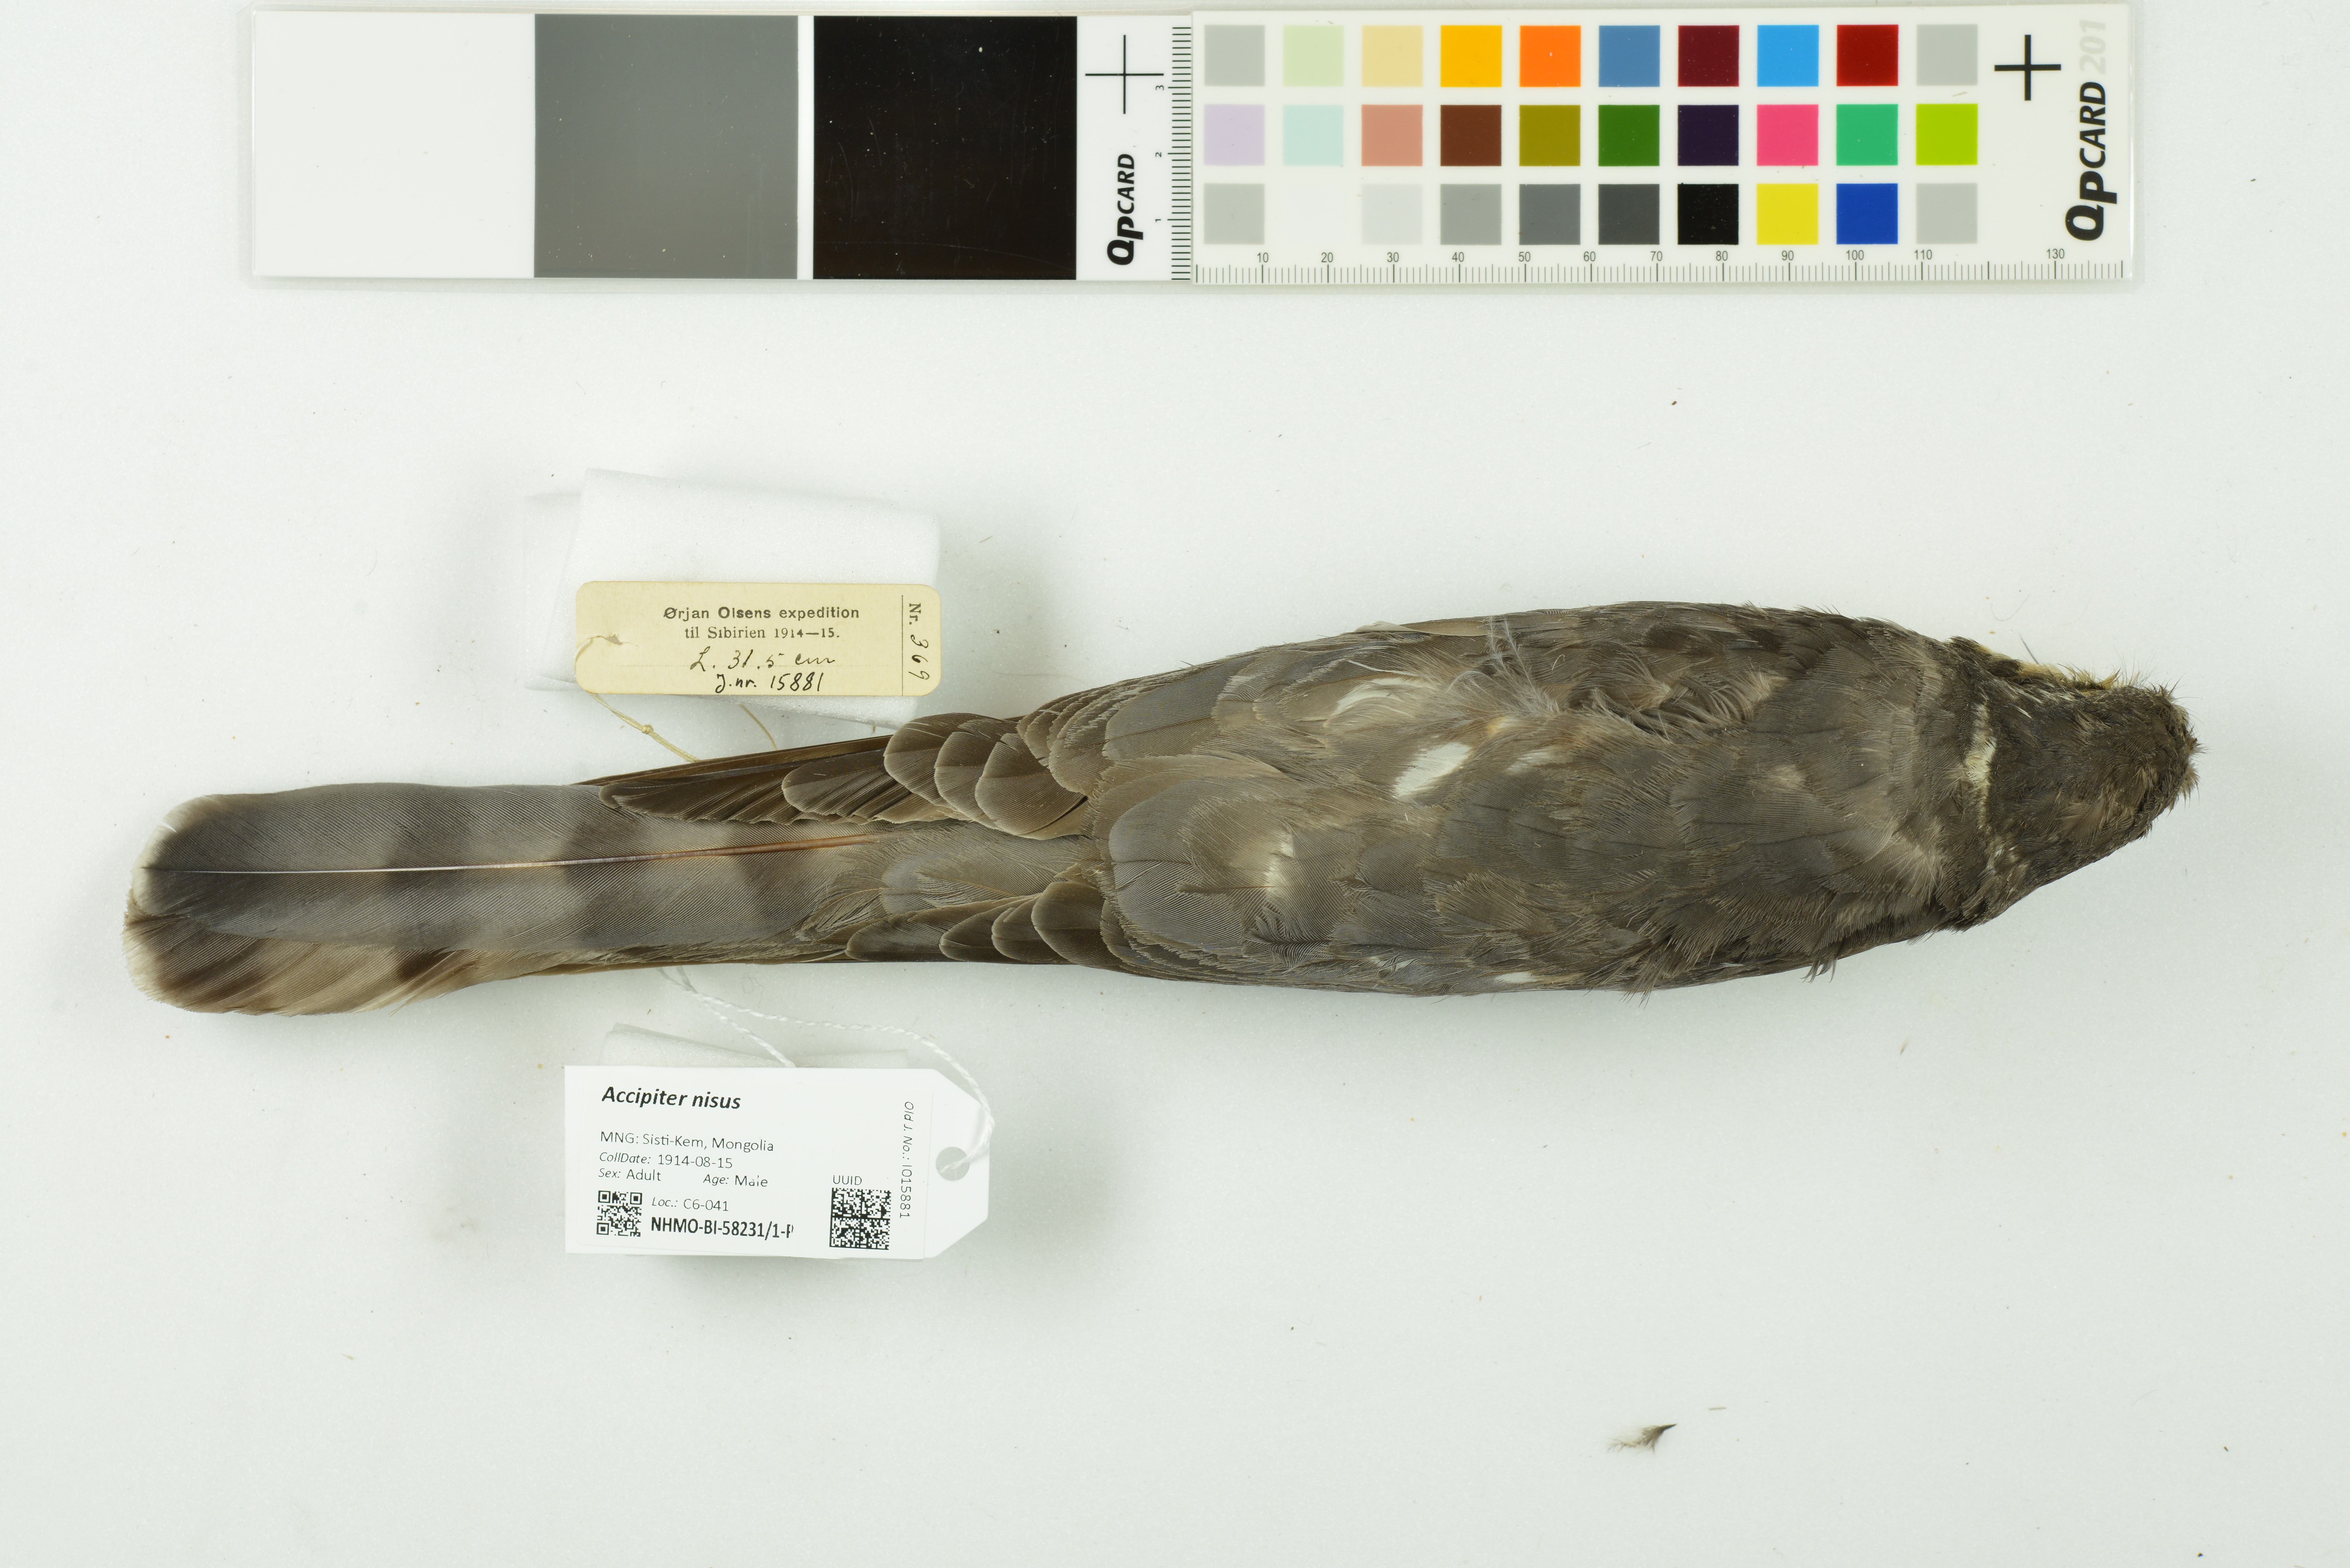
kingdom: Animalia
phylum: Chordata
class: Aves
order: Accipitriformes
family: Accipitridae
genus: Accipiter
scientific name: Accipiter nisus
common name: Eurasian sparrowhawk
